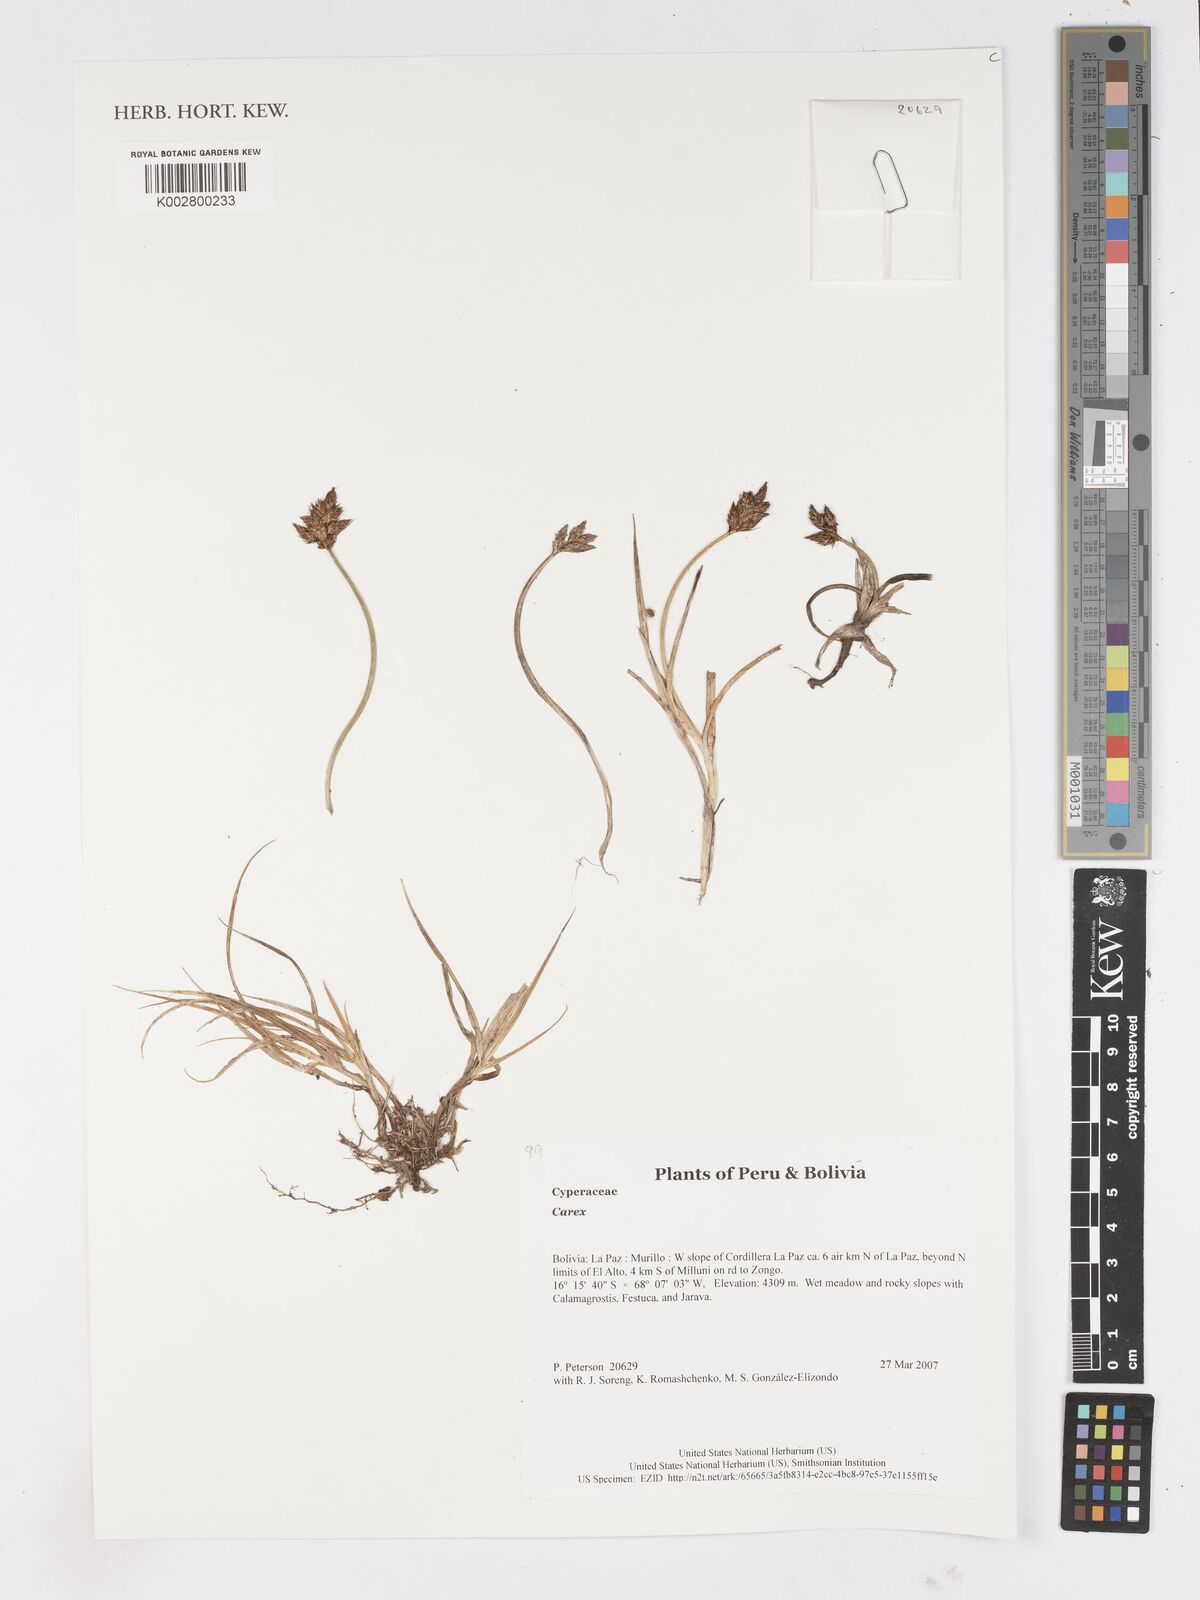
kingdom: Plantae
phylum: Tracheophyta
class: Liliopsida
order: Poales
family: Cyperaceae
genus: Carex
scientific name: Carex
